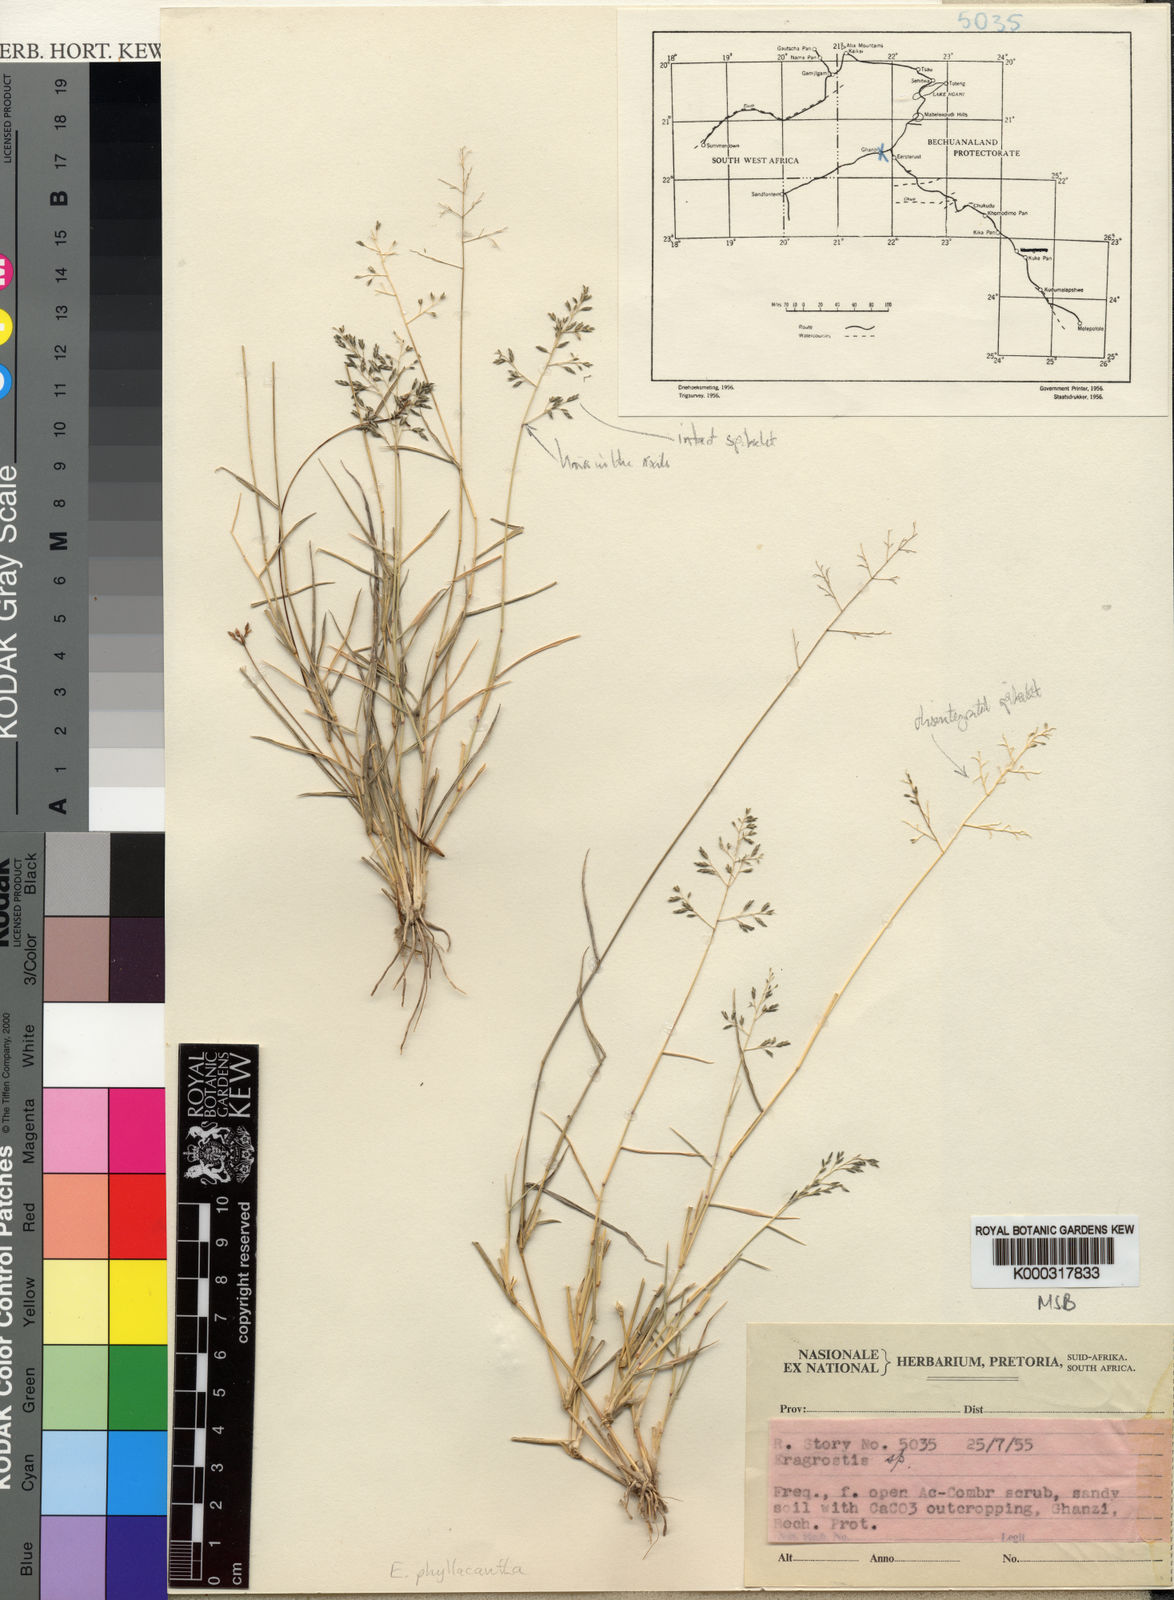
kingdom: Plantae
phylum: Tracheophyta
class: Liliopsida
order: Poales
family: Poaceae
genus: Eragrostis
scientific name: Eragrostis phyllacantha
